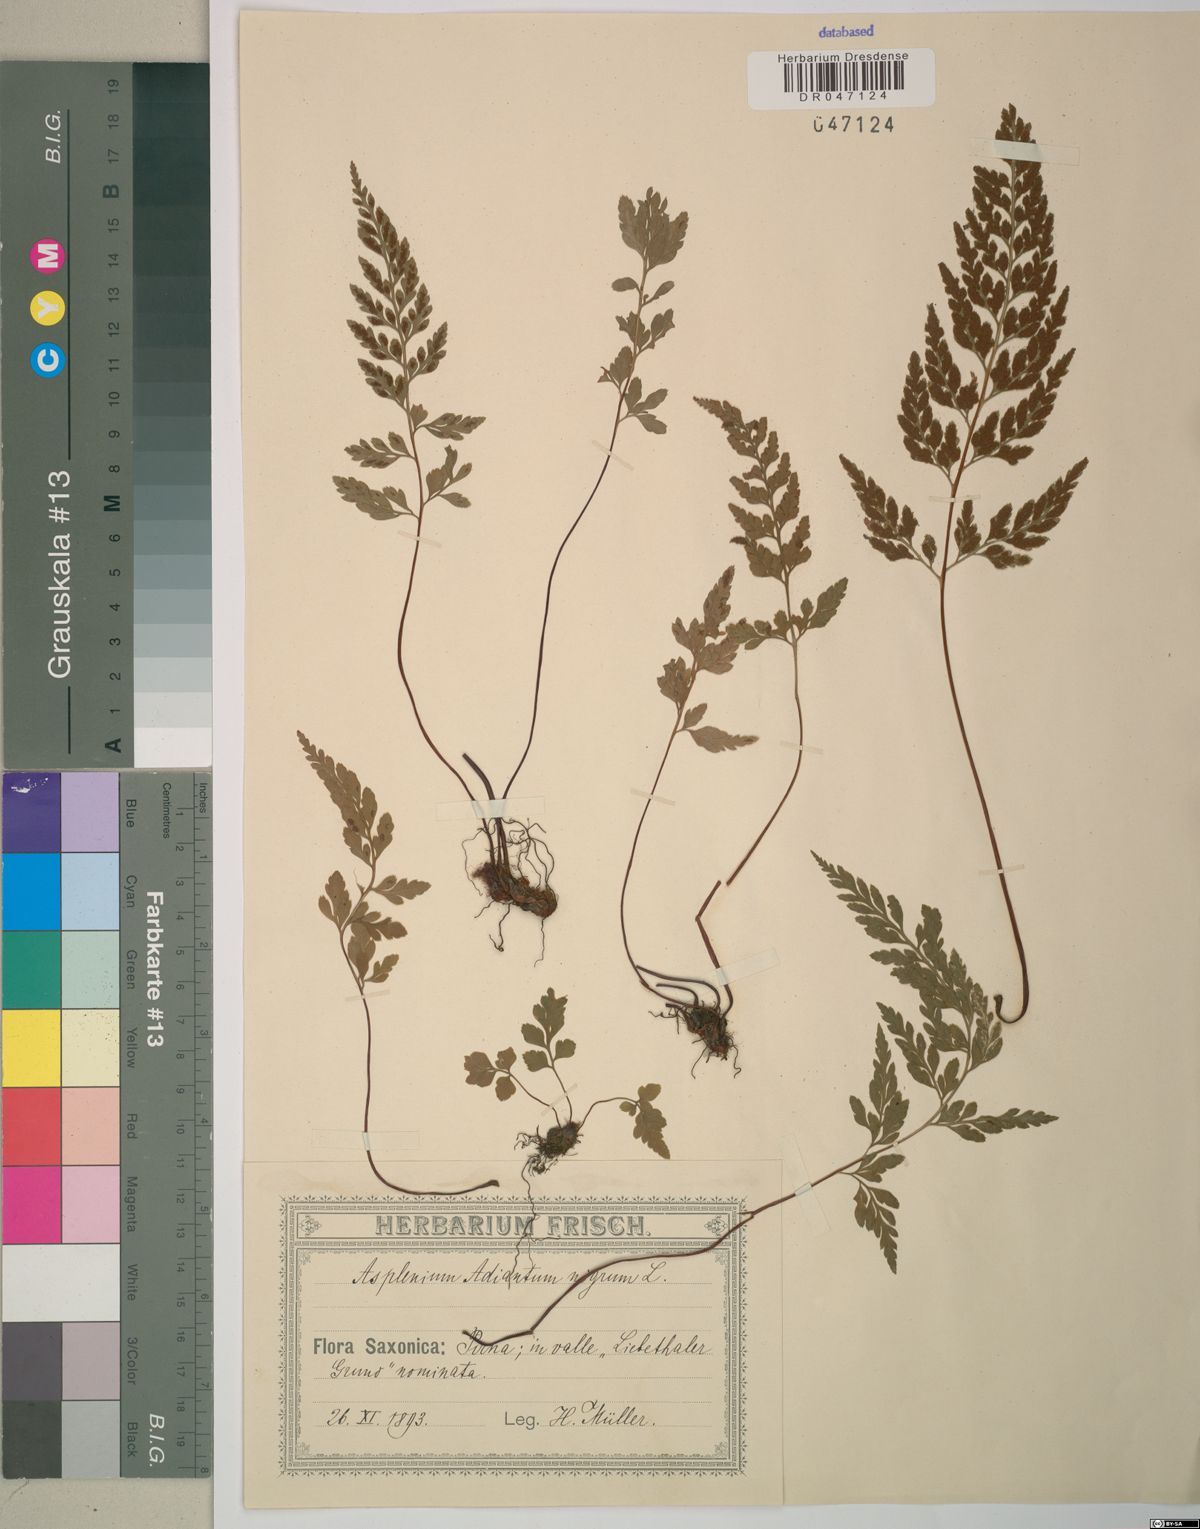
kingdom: Plantae
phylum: Tracheophyta
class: Polypodiopsida
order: Polypodiales
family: Aspleniaceae
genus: Asplenium
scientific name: Asplenium adiantum-nigrum
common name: Black spleenwort
